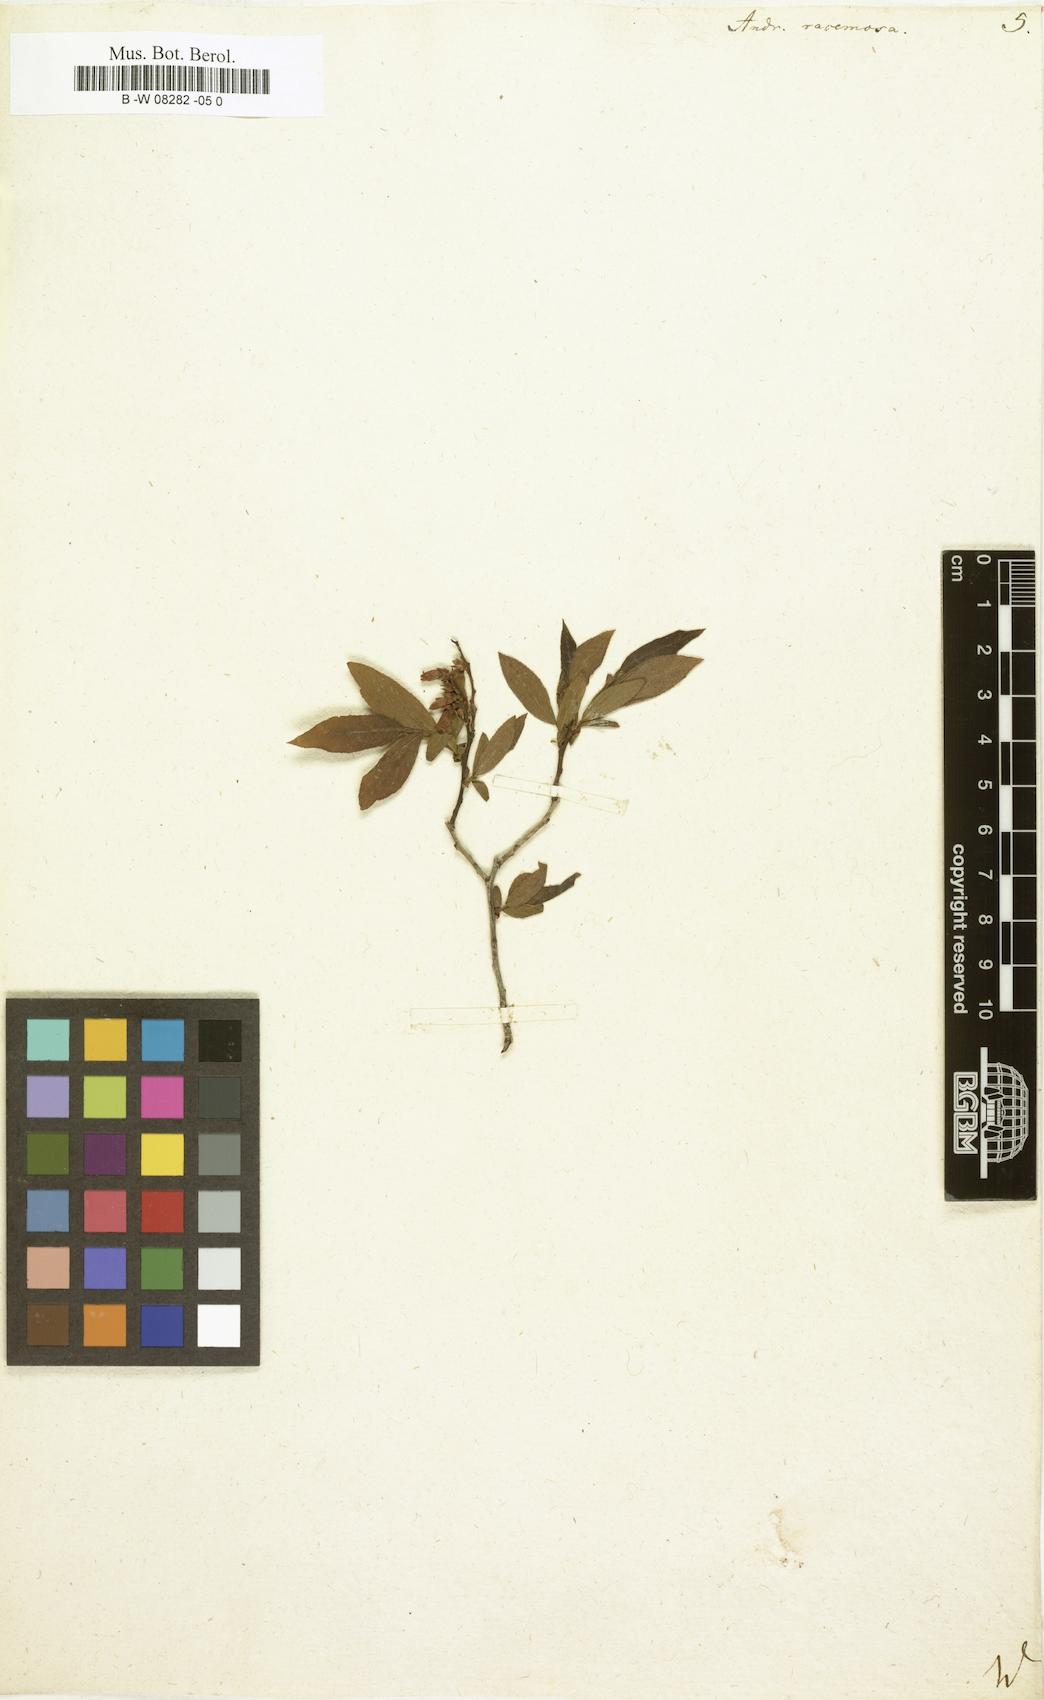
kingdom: Plantae
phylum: Tracheophyta
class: Magnoliopsida
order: Ericales
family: Ericaceae
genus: Eubotrys
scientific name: Eubotrys racemosa
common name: Fetterbush
